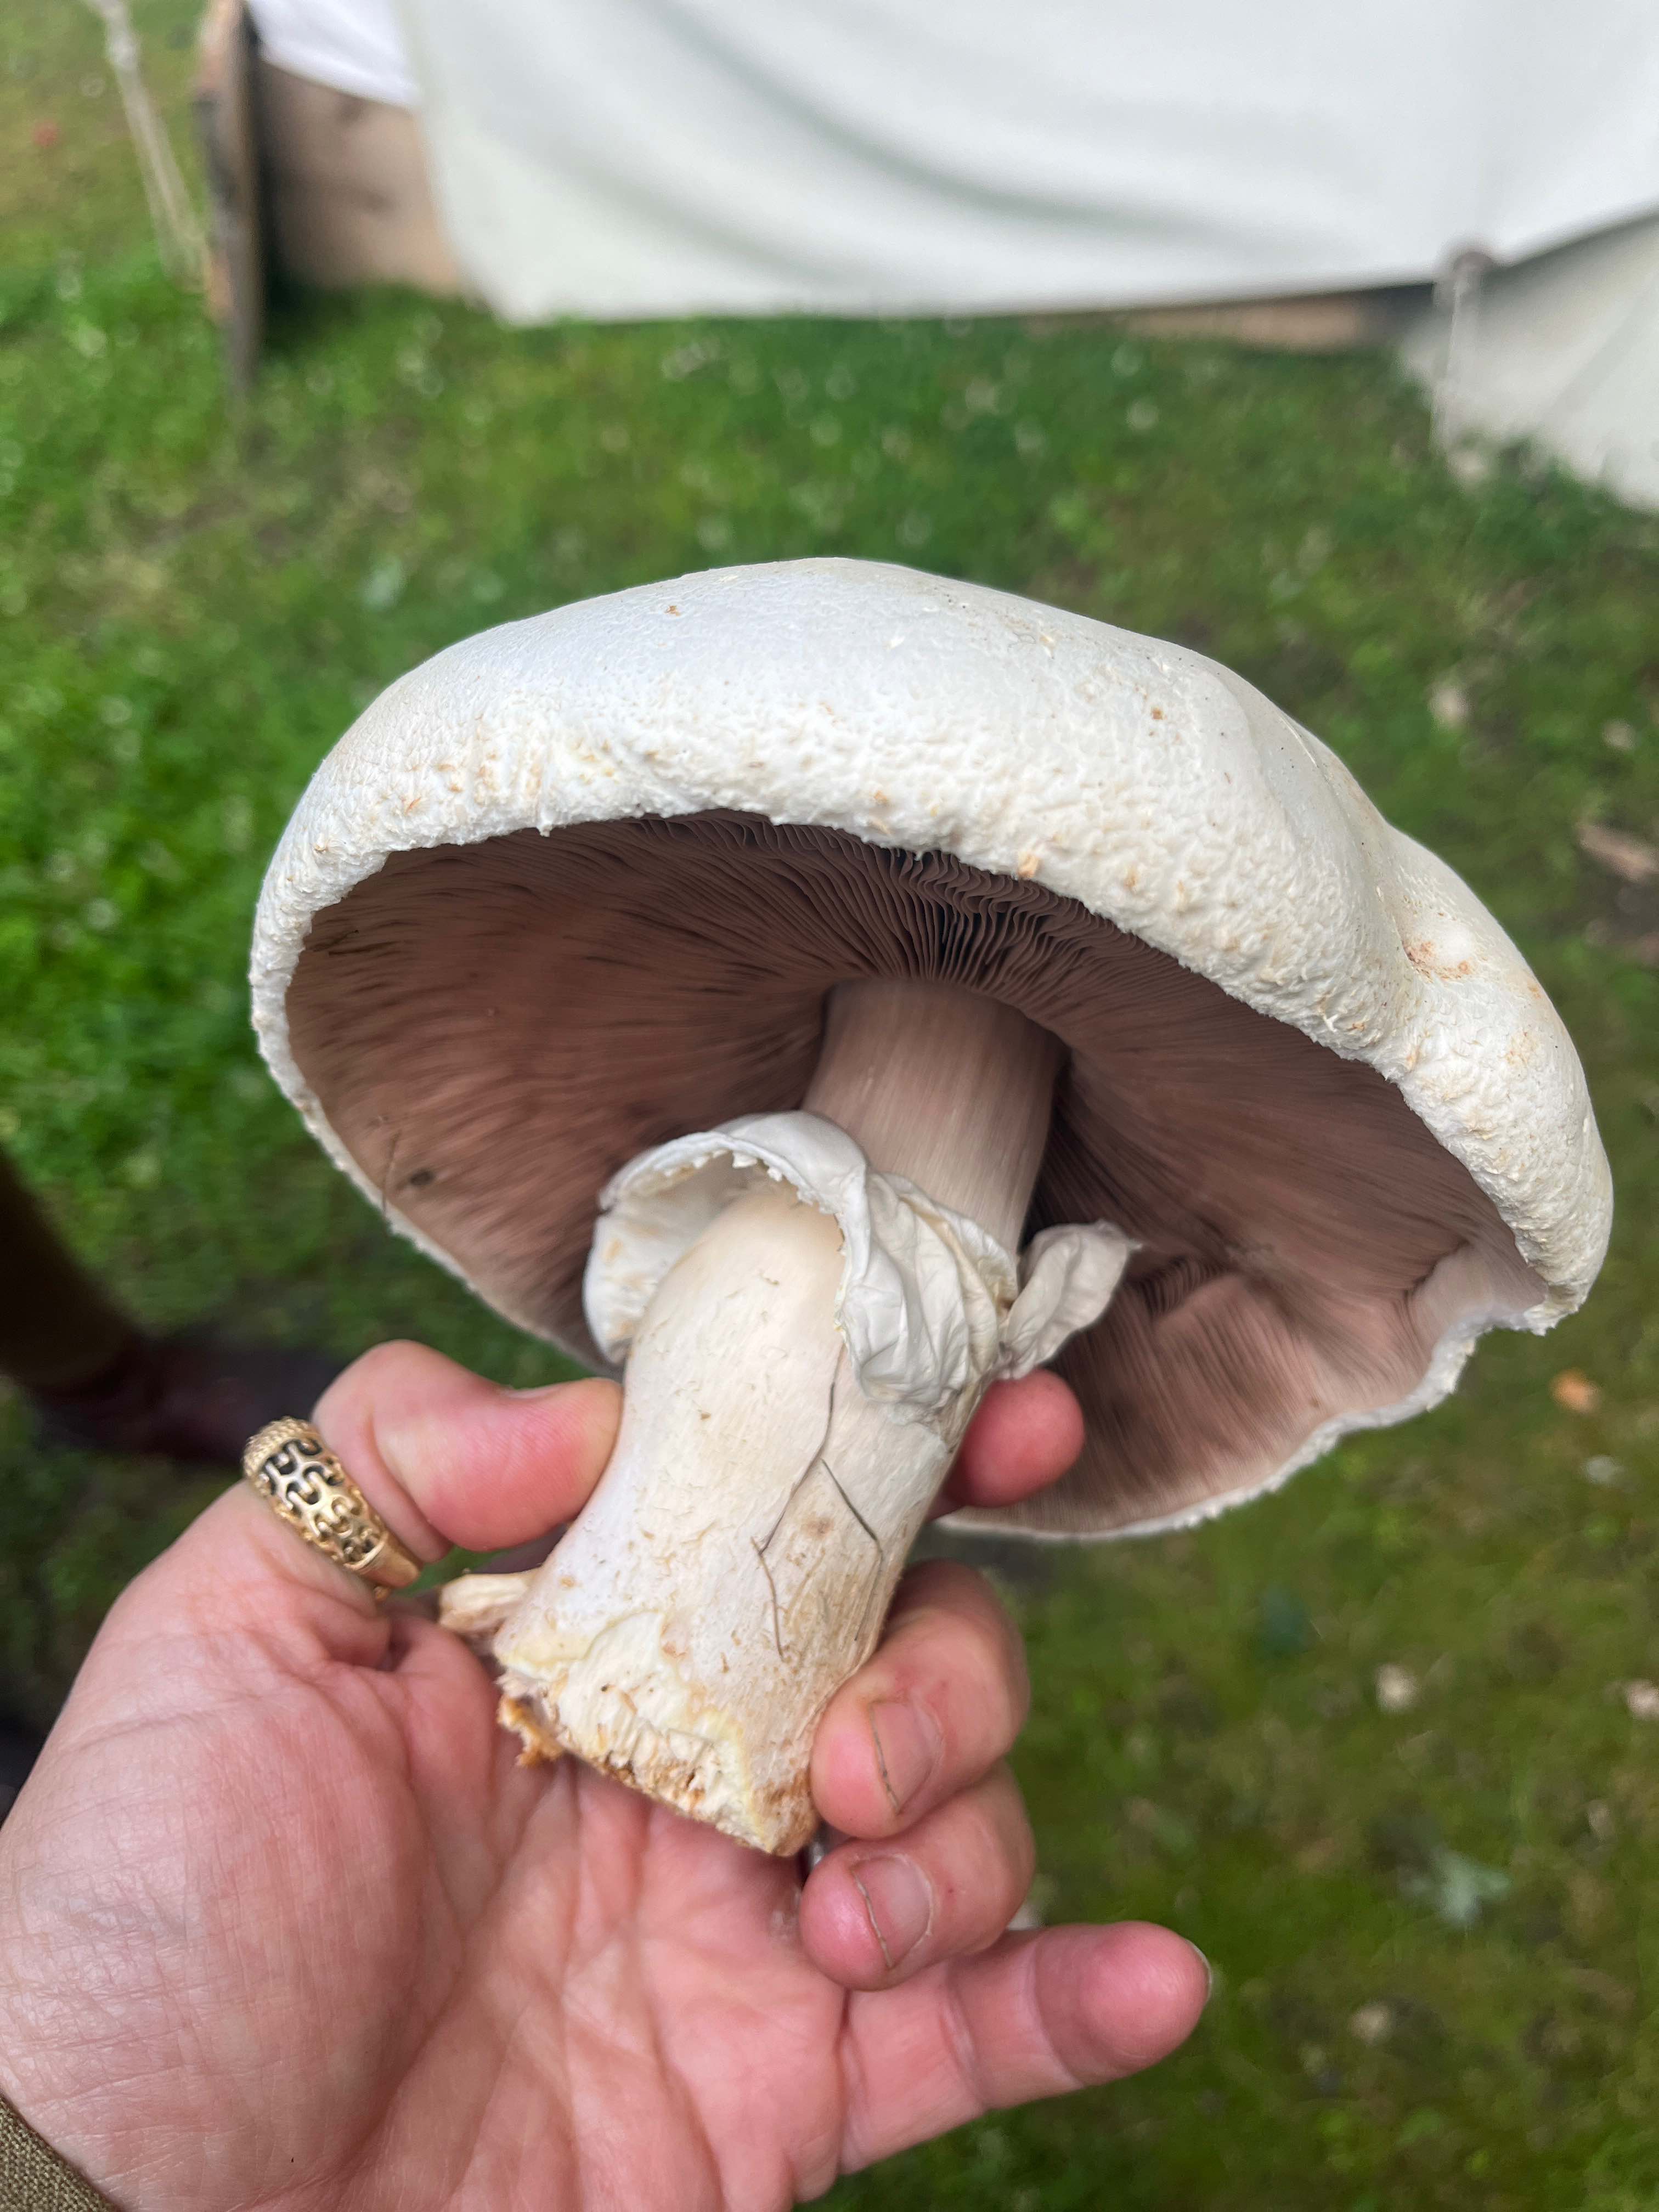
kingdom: Fungi
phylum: Basidiomycota
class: Agaricomycetes
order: Agaricales
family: Agaricaceae
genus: Agaricus
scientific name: Agaricus
